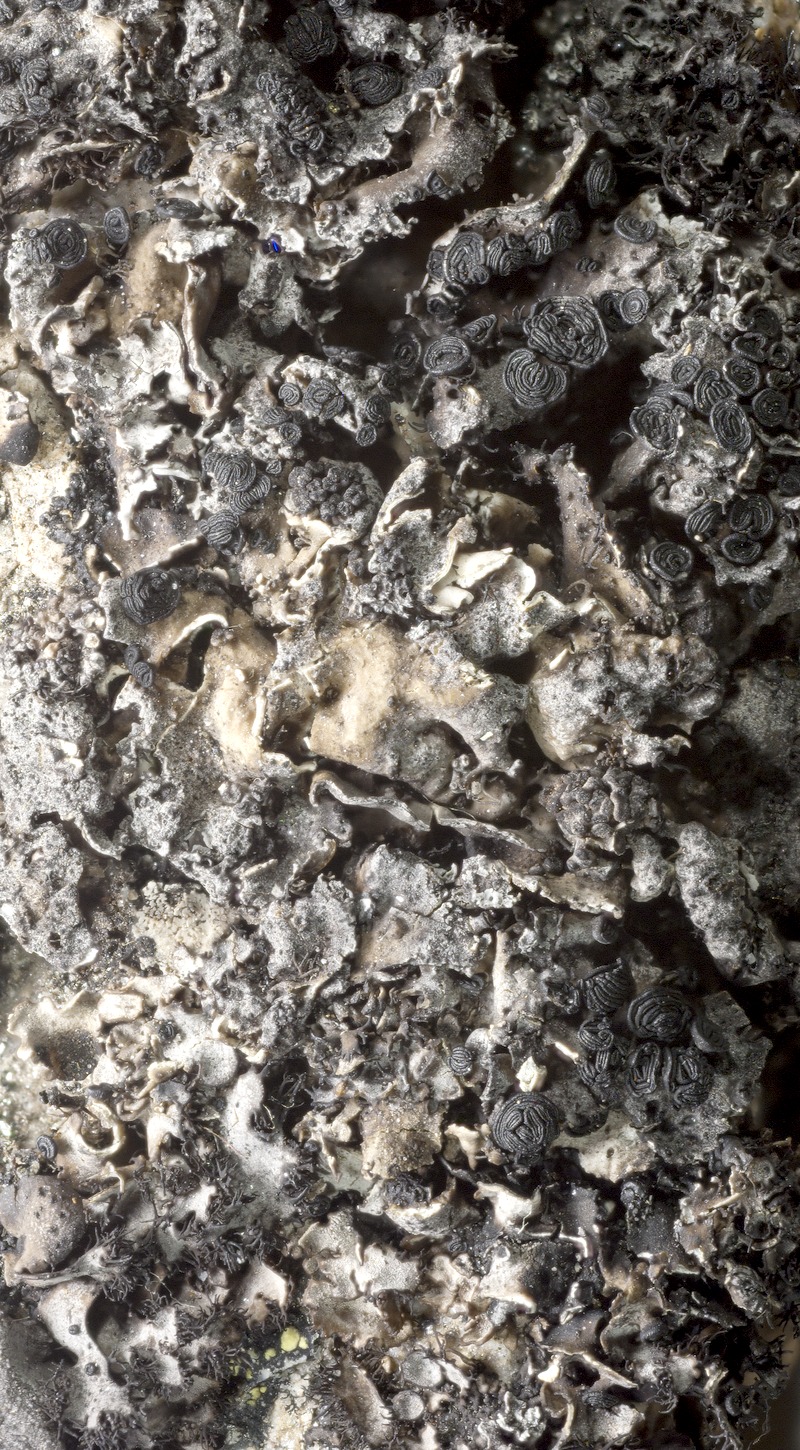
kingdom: Fungi
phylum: Ascomycota
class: Dothideomycetes
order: Mycosphaerellales
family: Mycosphaerellaceae
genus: Stigmidium
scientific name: Stigmidium gyrophorarum
